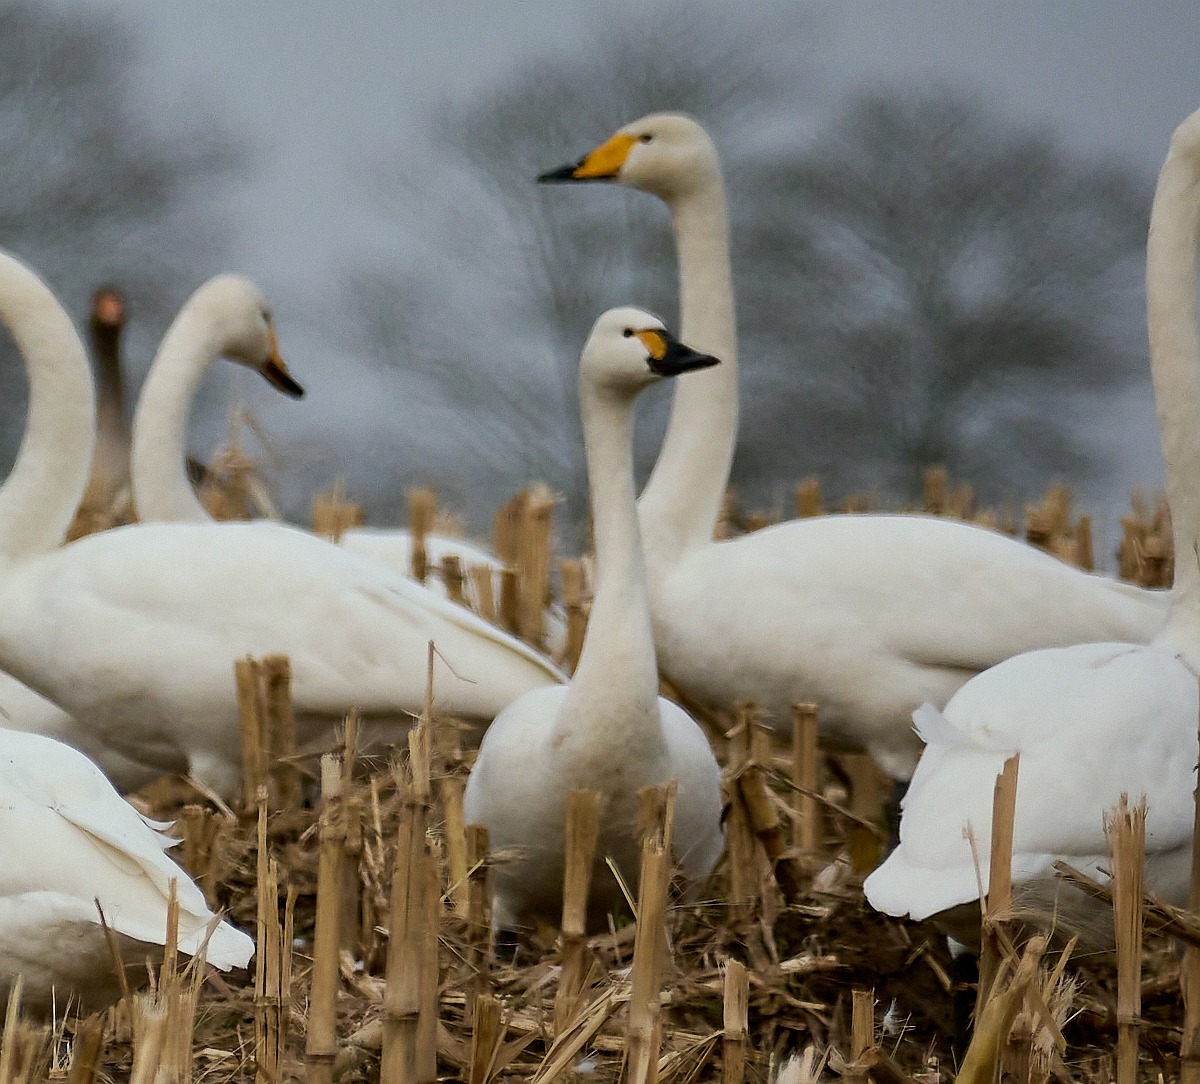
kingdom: Animalia
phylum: Chordata
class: Aves
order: Anseriformes
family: Anatidae
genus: Cygnus
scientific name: Cygnus columbianus
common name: Pibesvane
